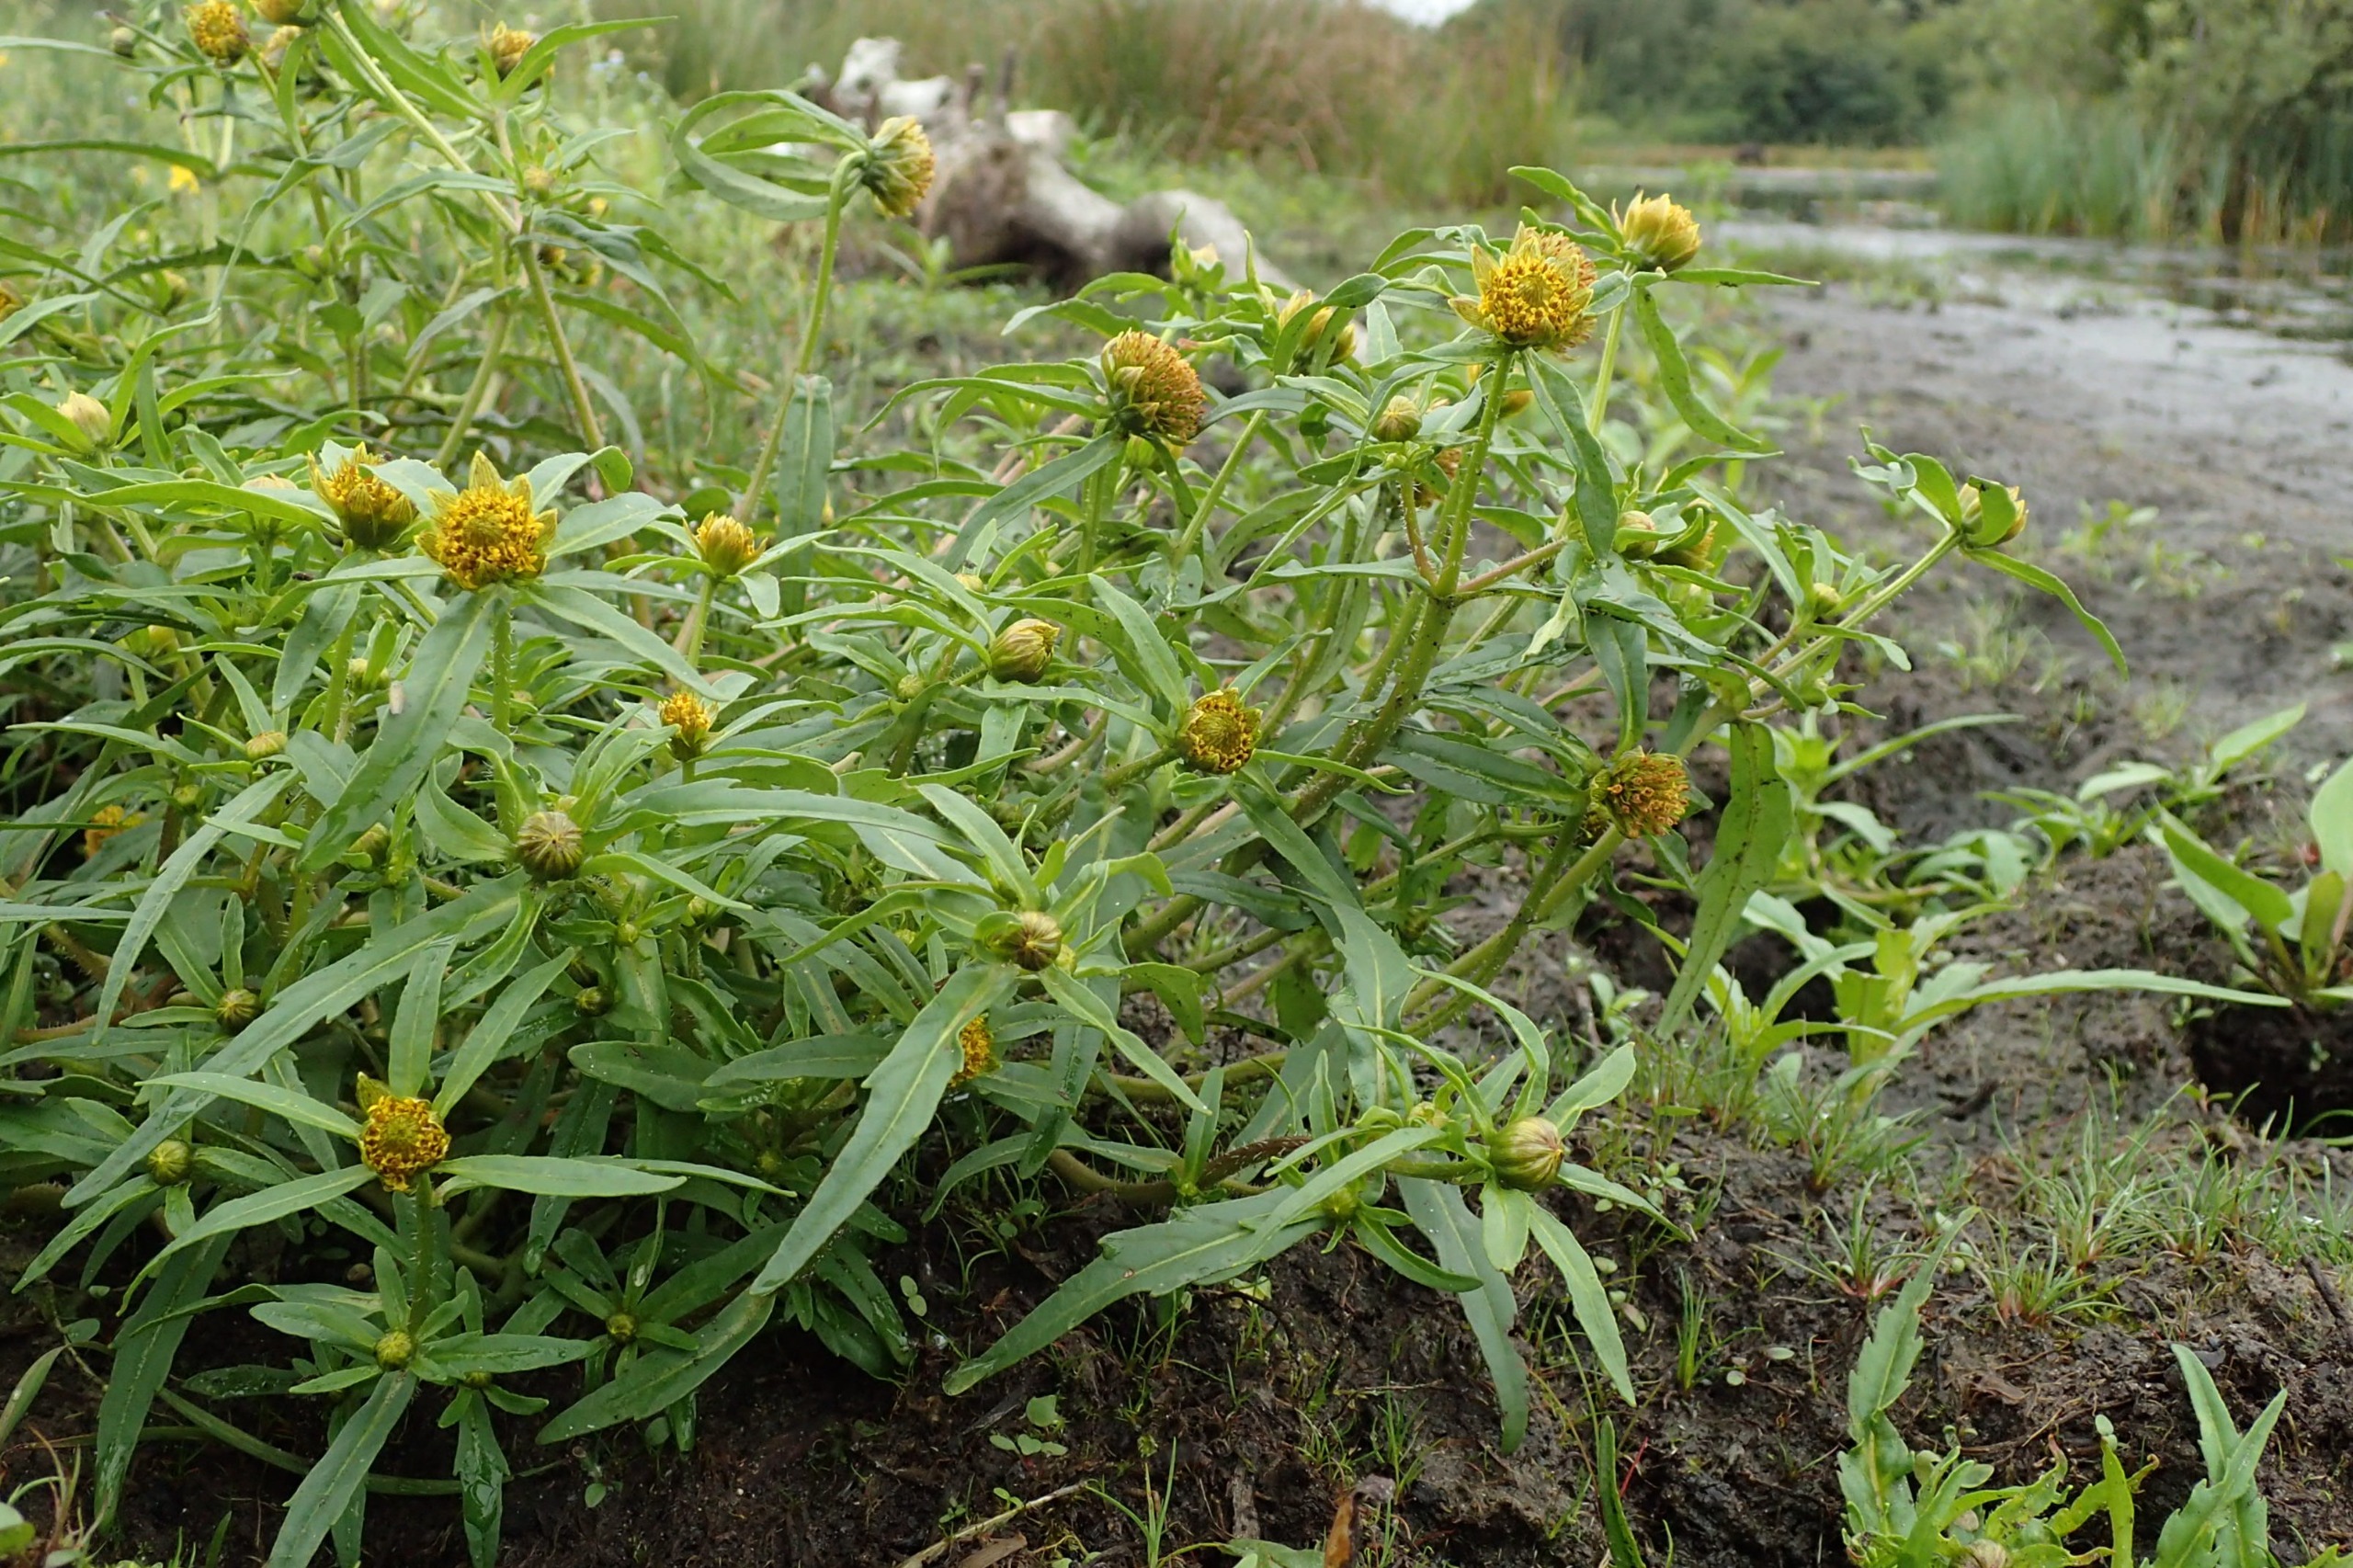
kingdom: Plantae
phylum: Tracheophyta
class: Magnoliopsida
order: Asterales
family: Asteraceae
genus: Bidens
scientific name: Bidens cernua
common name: Nikkende brøndsel
